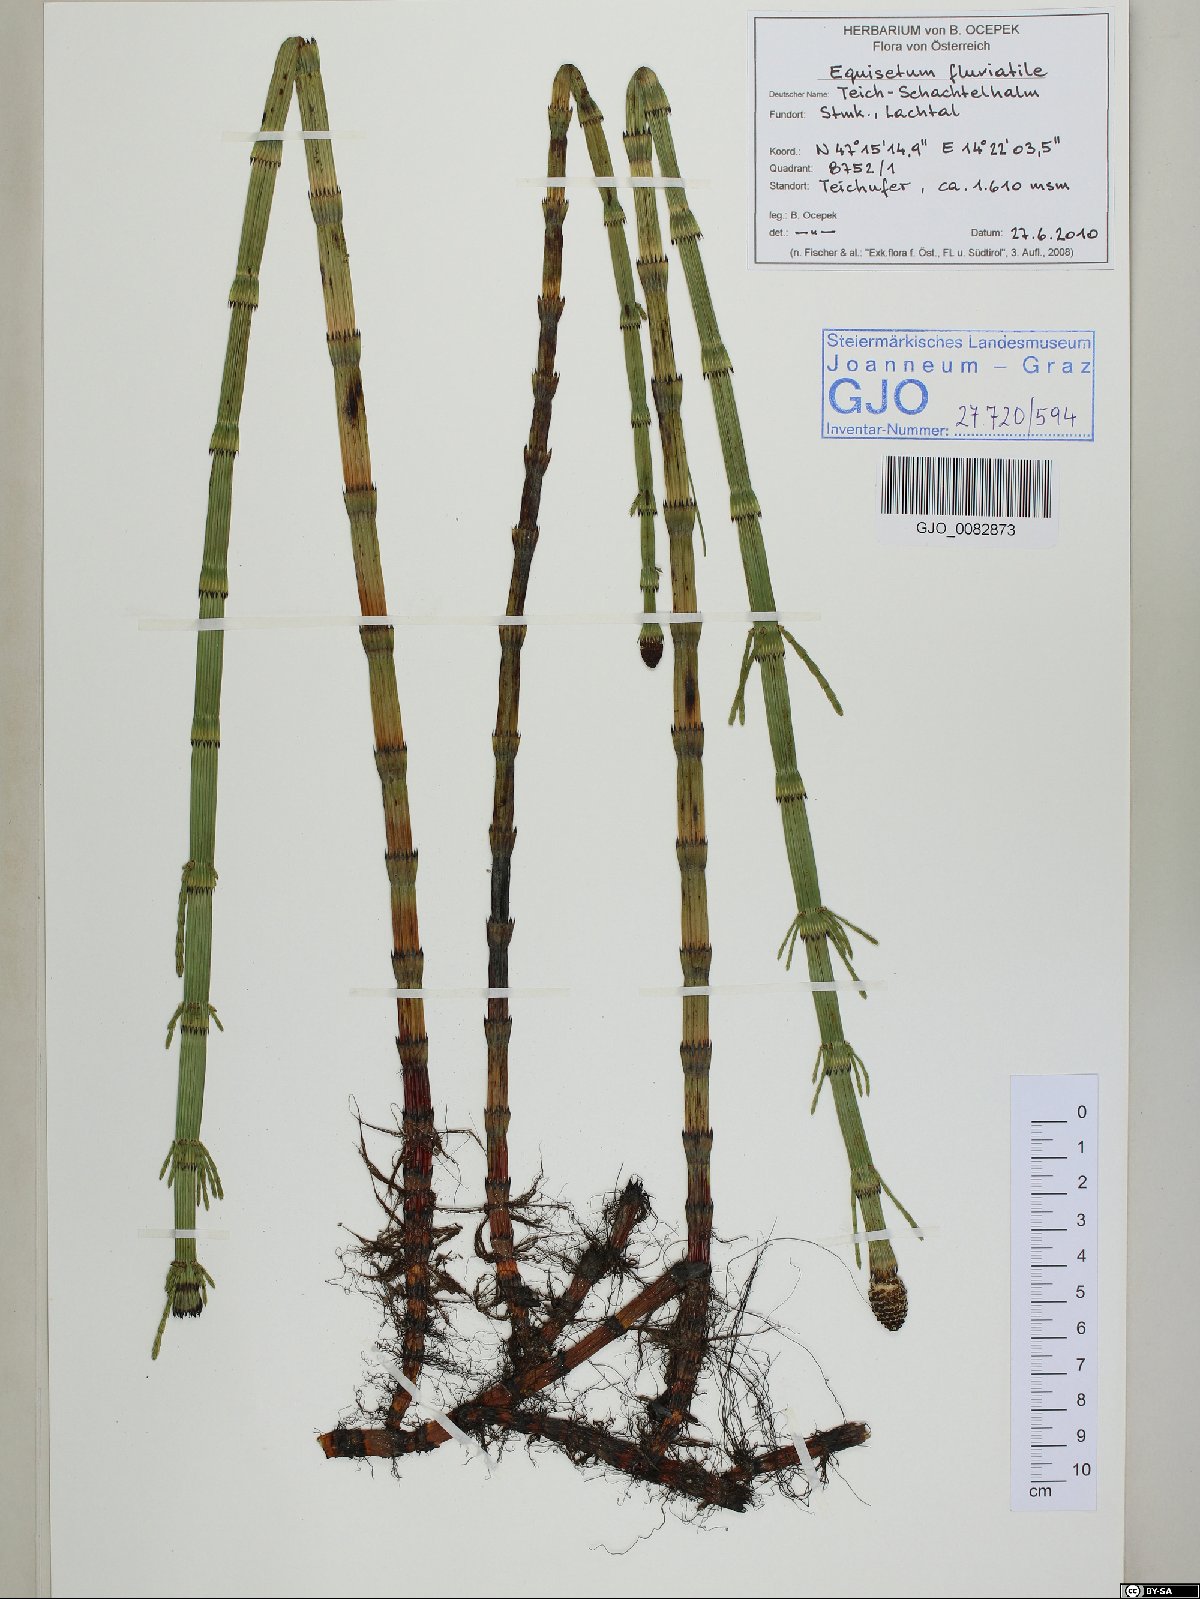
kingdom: Plantae
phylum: Tracheophyta
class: Polypodiopsida
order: Equisetales
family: Equisetaceae
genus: Equisetum
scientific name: Equisetum fluviatile
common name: Water horsetail
